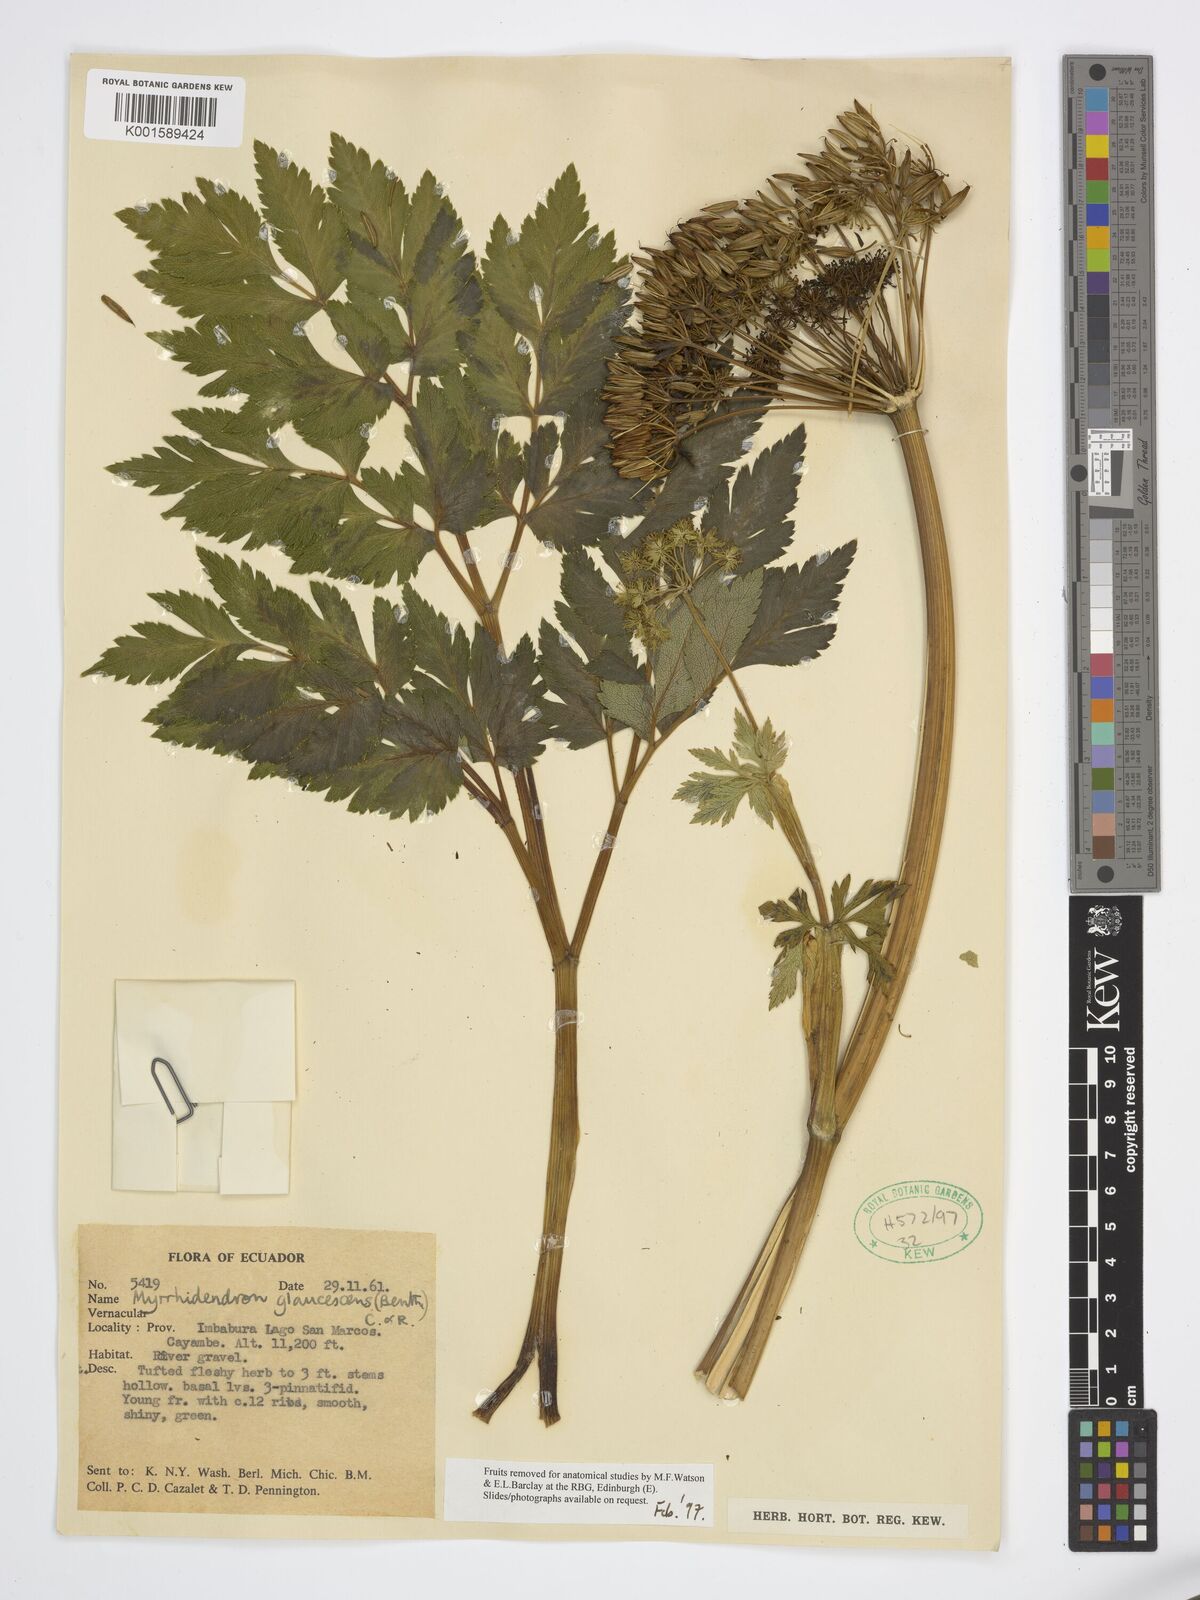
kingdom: Plantae
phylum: Tracheophyta
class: Magnoliopsida
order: Apiales
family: Apiaceae
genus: Myrrhidendron
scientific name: Myrrhidendron glaucescens
